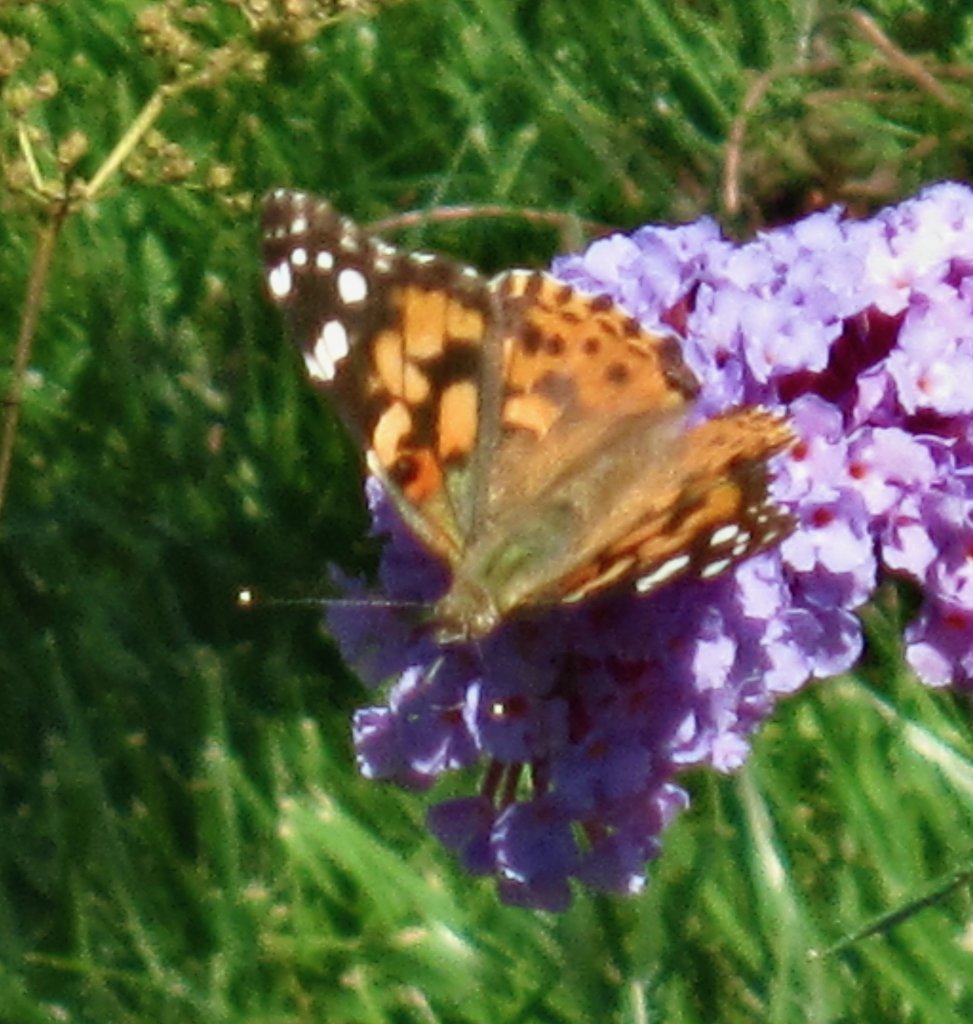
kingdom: Animalia
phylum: Arthropoda
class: Insecta
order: Lepidoptera
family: Nymphalidae
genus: Vanessa
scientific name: Vanessa cardui
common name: Painted Lady
